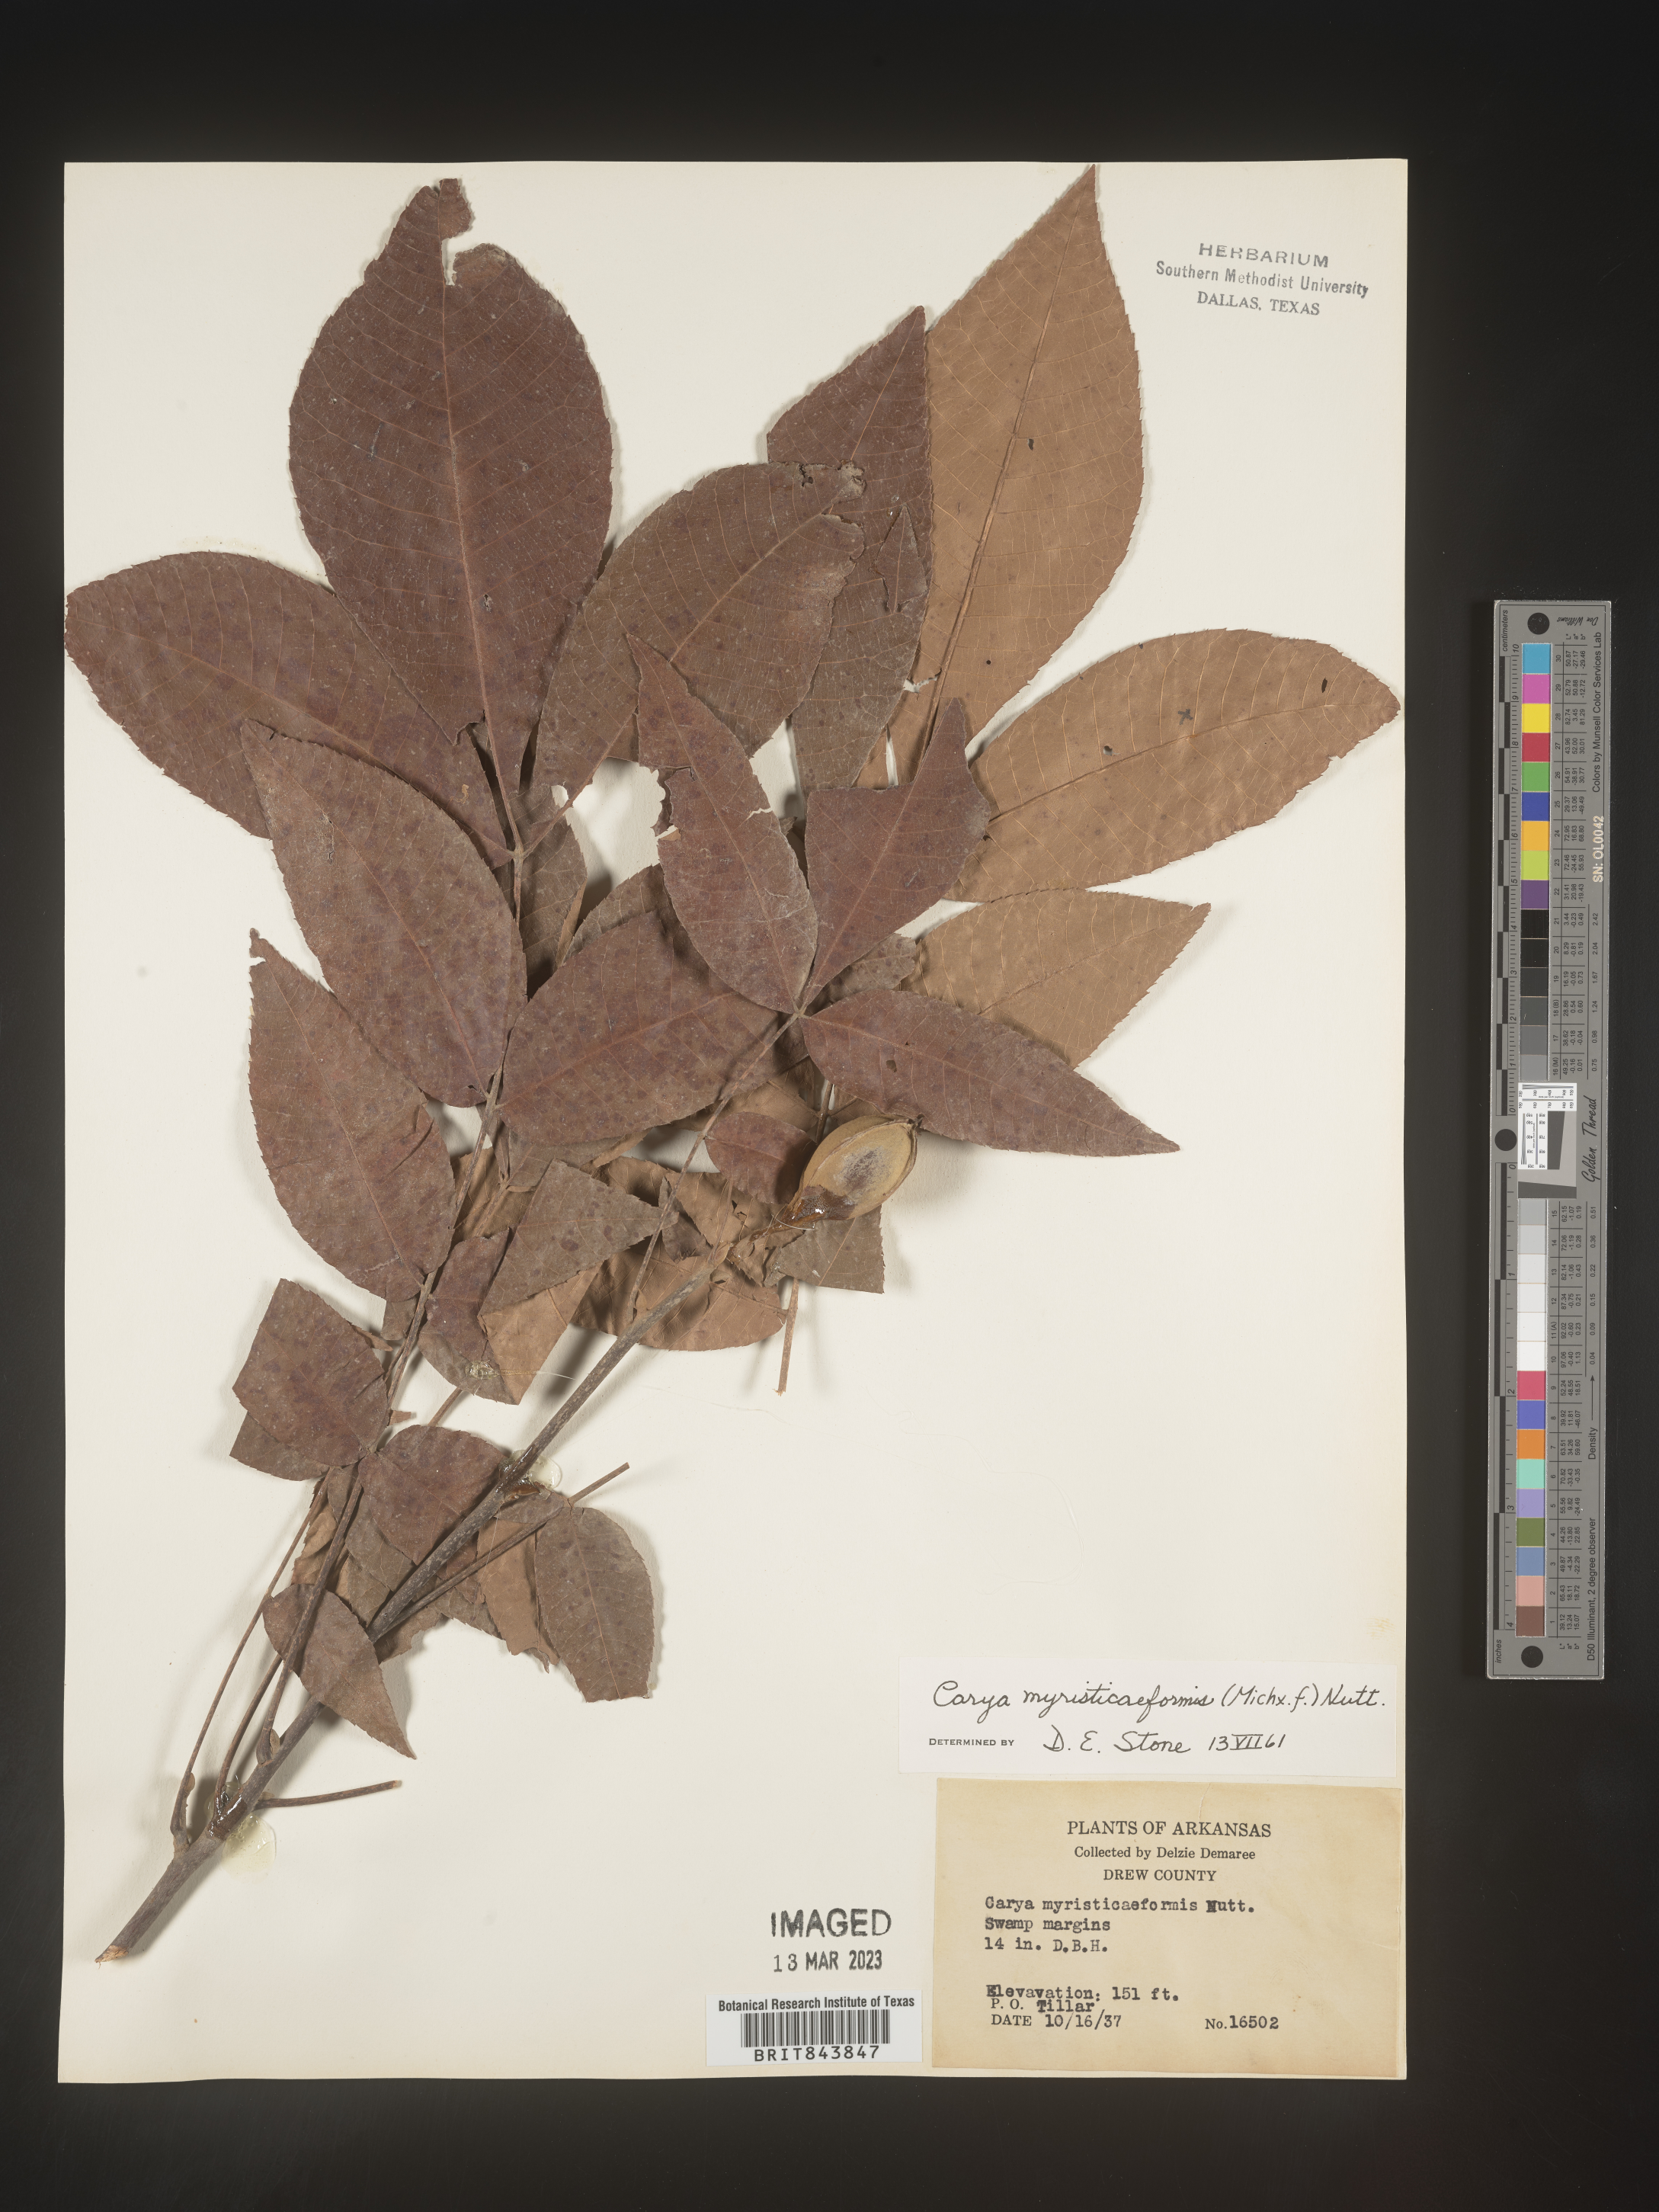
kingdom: Plantae
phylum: Tracheophyta
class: Magnoliopsida
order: Fagales
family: Juglandaceae
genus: Carya
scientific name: Carya myristiciformis
